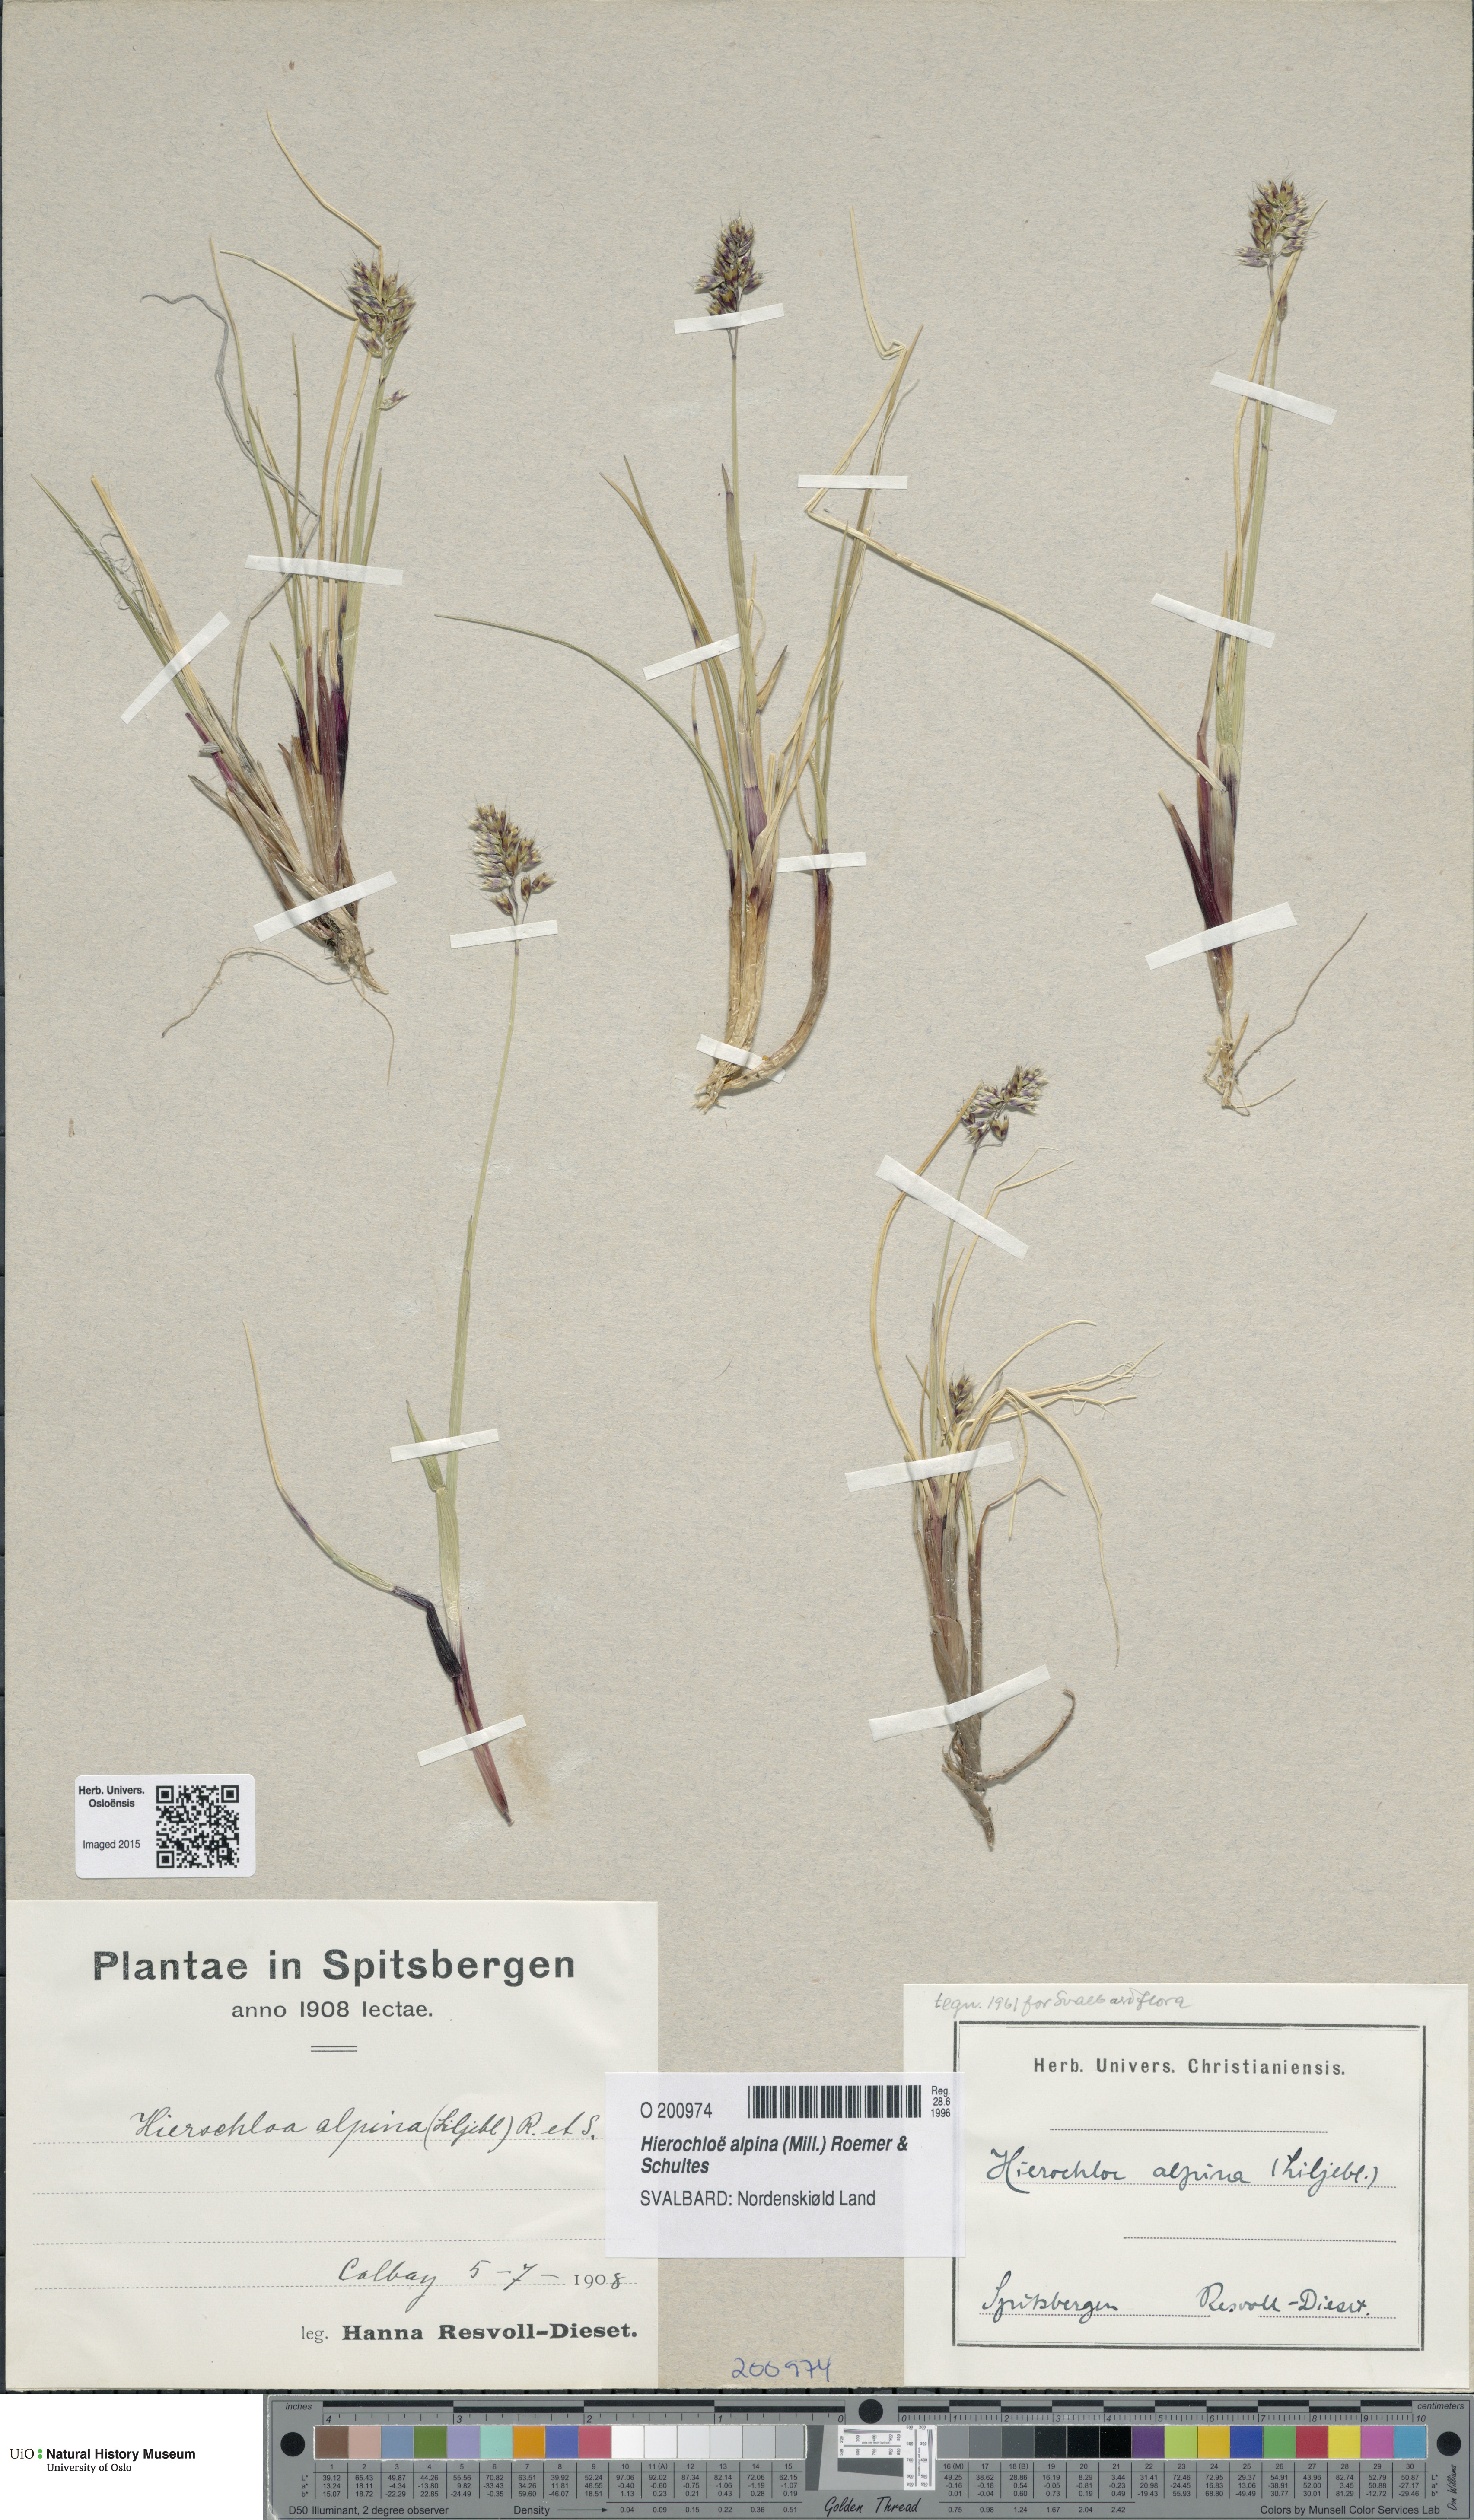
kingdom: Plantae
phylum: Tracheophyta
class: Liliopsida
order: Poales
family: Poaceae
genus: Anthoxanthum
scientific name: Anthoxanthum monticola
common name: Alpine sweetgrass
